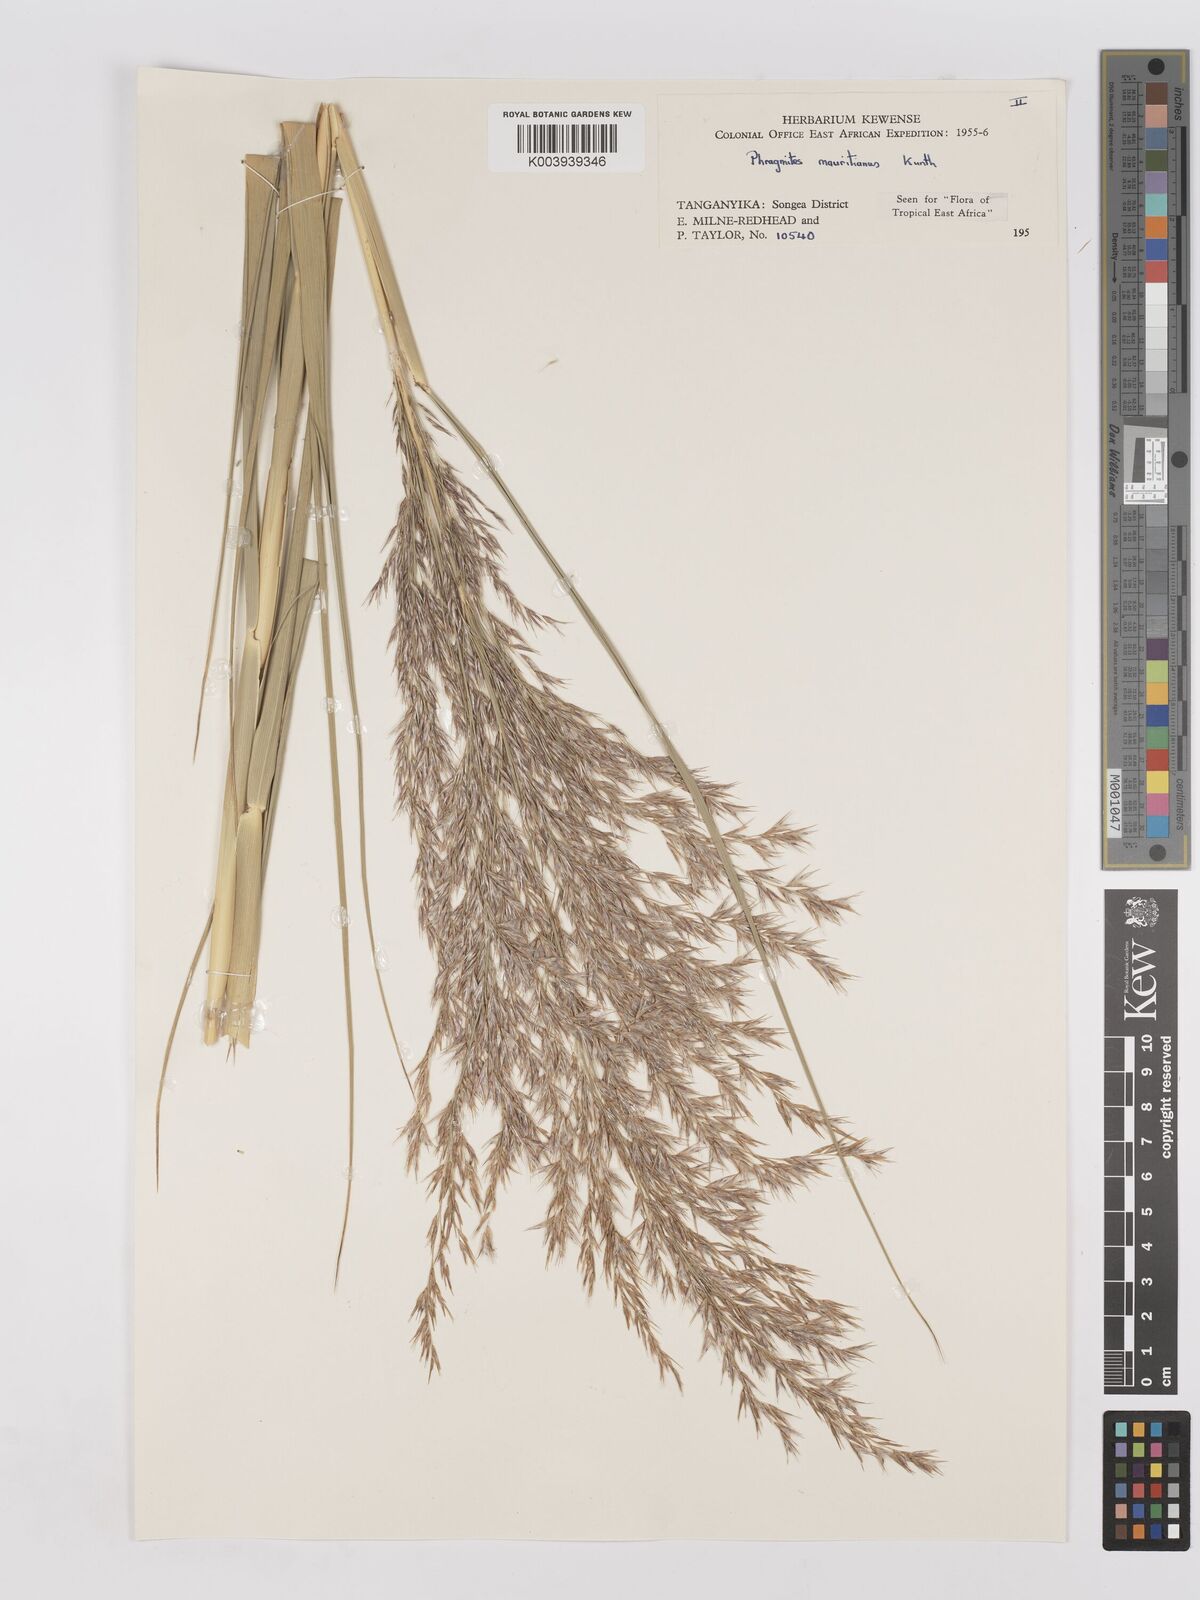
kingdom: Plantae
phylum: Tracheophyta
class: Liliopsida
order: Poales
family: Poaceae
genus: Phragmites
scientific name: Phragmites mauritianus
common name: Reed grass
